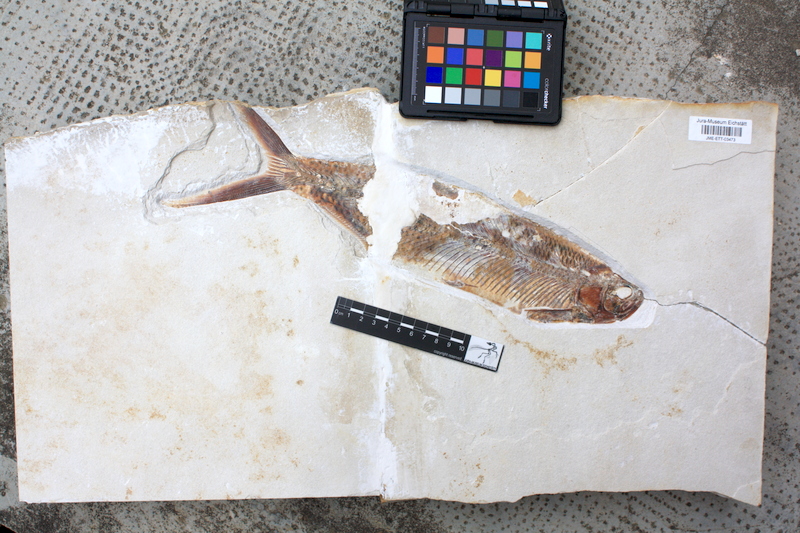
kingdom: Animalia
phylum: Chordata
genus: Thrissops
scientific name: Thrissops formosus
